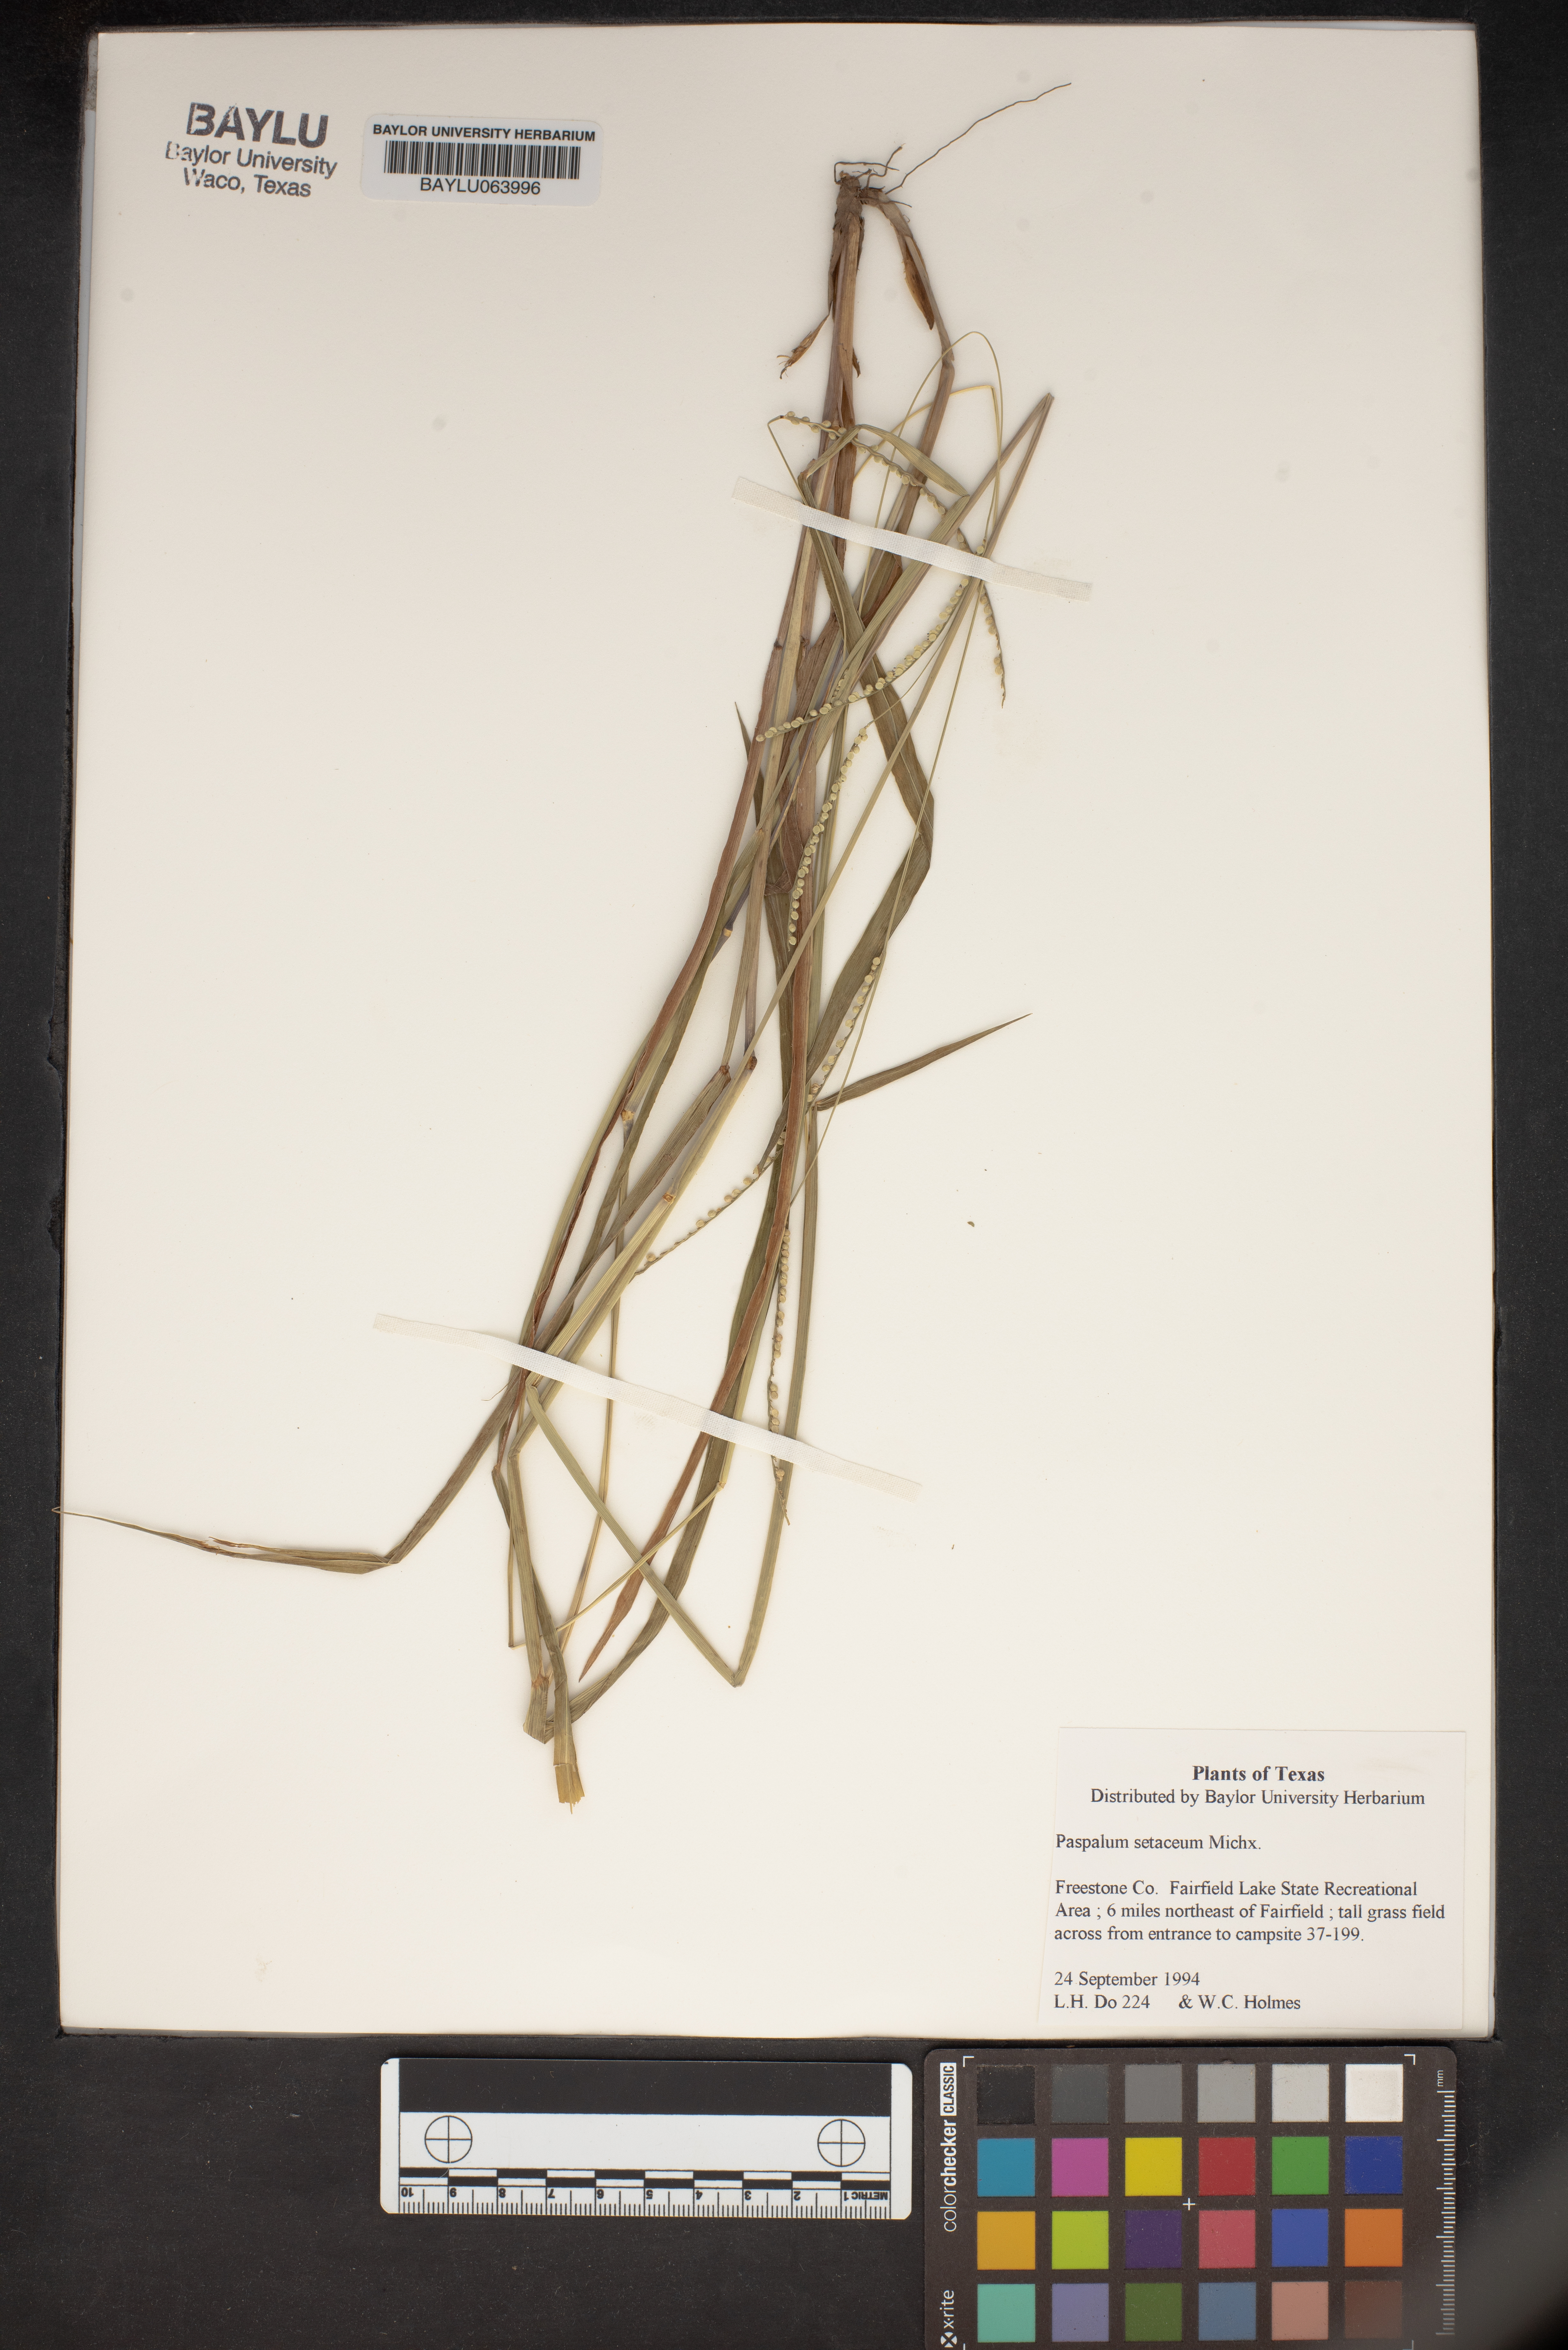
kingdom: Plantae
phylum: Tracheophyta
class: Liliopsida
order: Poales
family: Poaceae
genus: Paspalum
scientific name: Paspalum setaceum
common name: Slender paspalum
